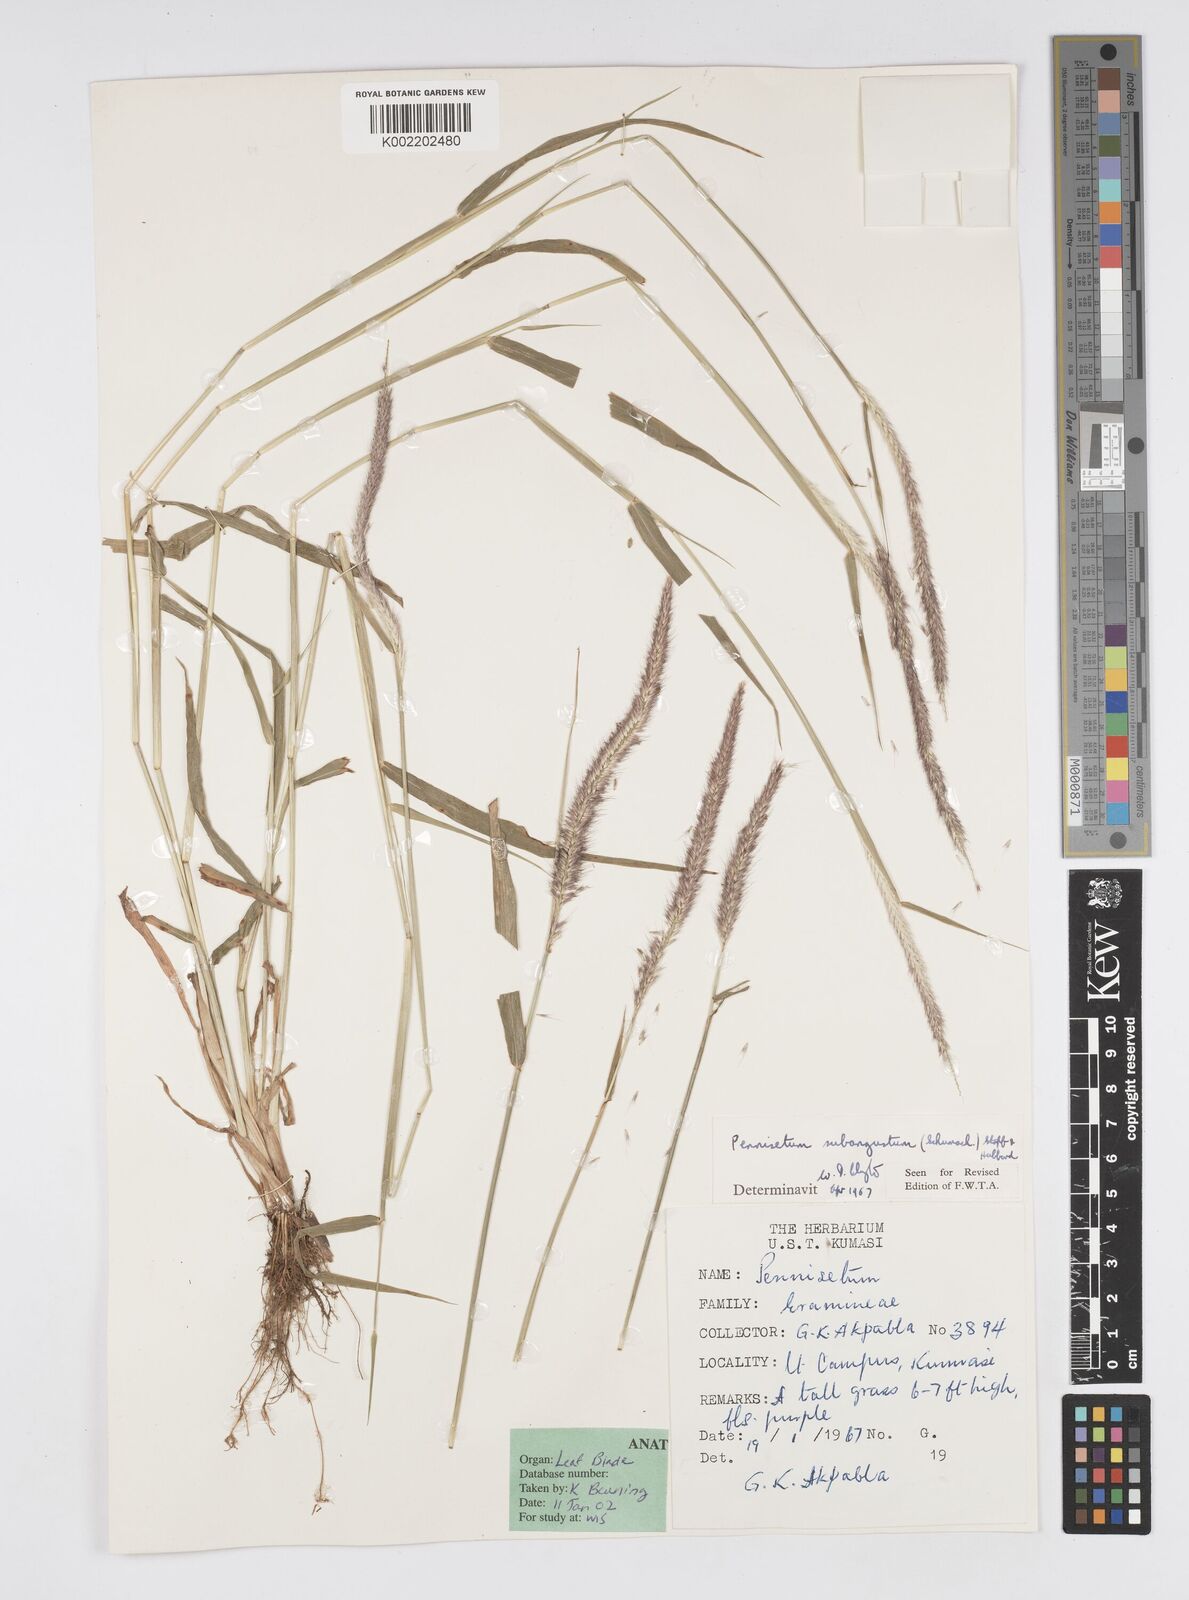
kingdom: Plantae
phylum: Tracheophyta
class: Liliopsida
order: Poales
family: Poaceae
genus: Setaria
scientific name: Setaria parviflora
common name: Knotroot bristle-grass
